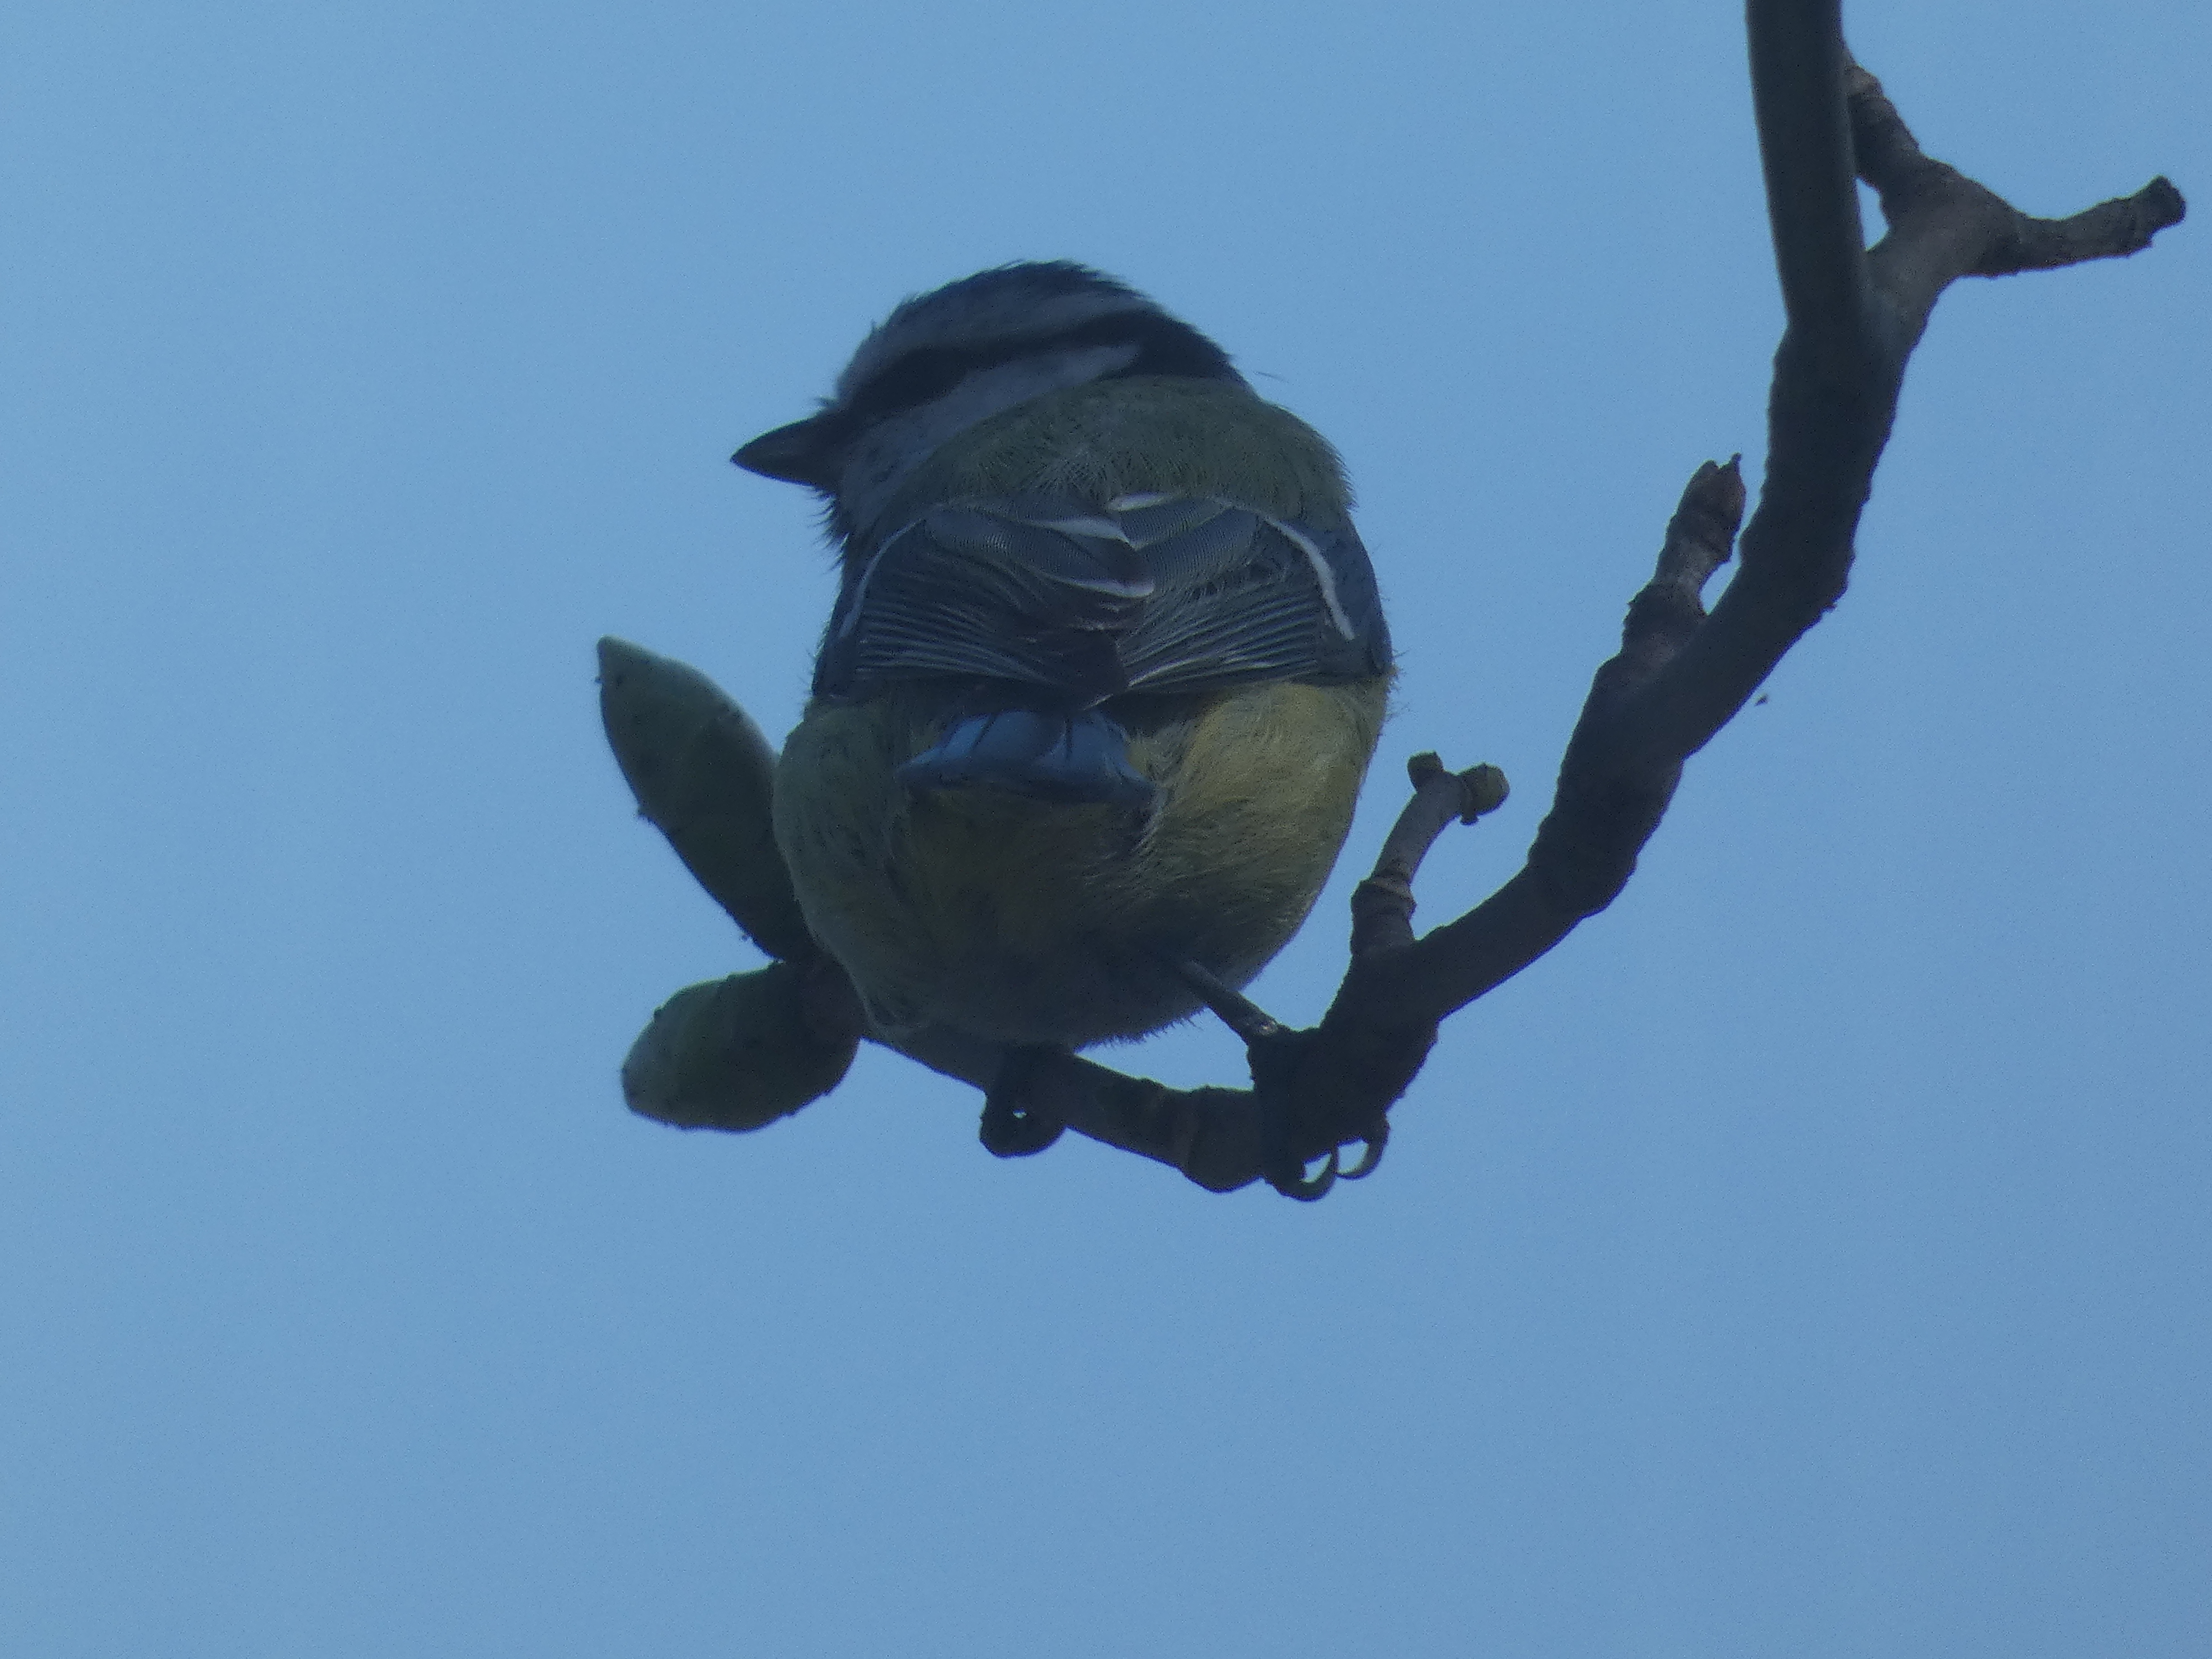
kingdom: Animalia
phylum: Chordata
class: Aves
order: Passeriformes
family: Paridae
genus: Cyanistes
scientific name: Cyanistes caeruleus
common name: Blåmejse
